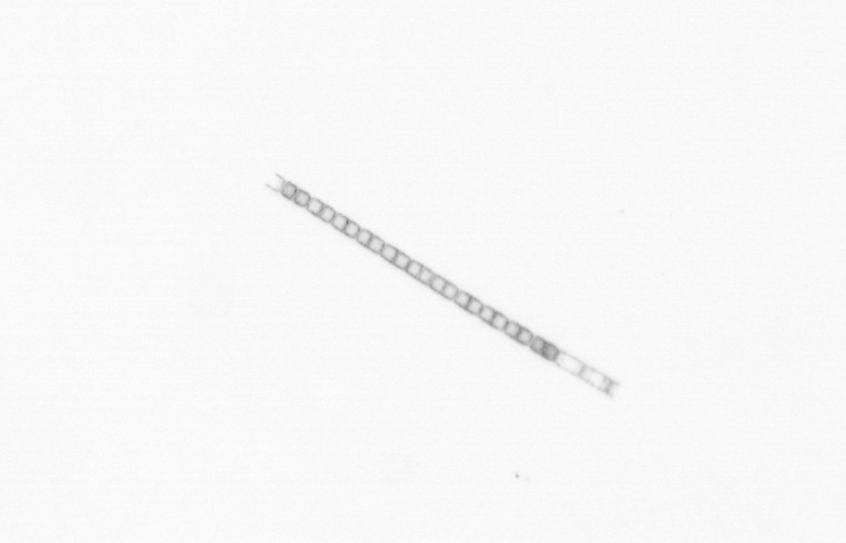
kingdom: Chromista
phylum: Ochrophyta
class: Bacillariophyceae
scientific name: Bacillariophyceae
